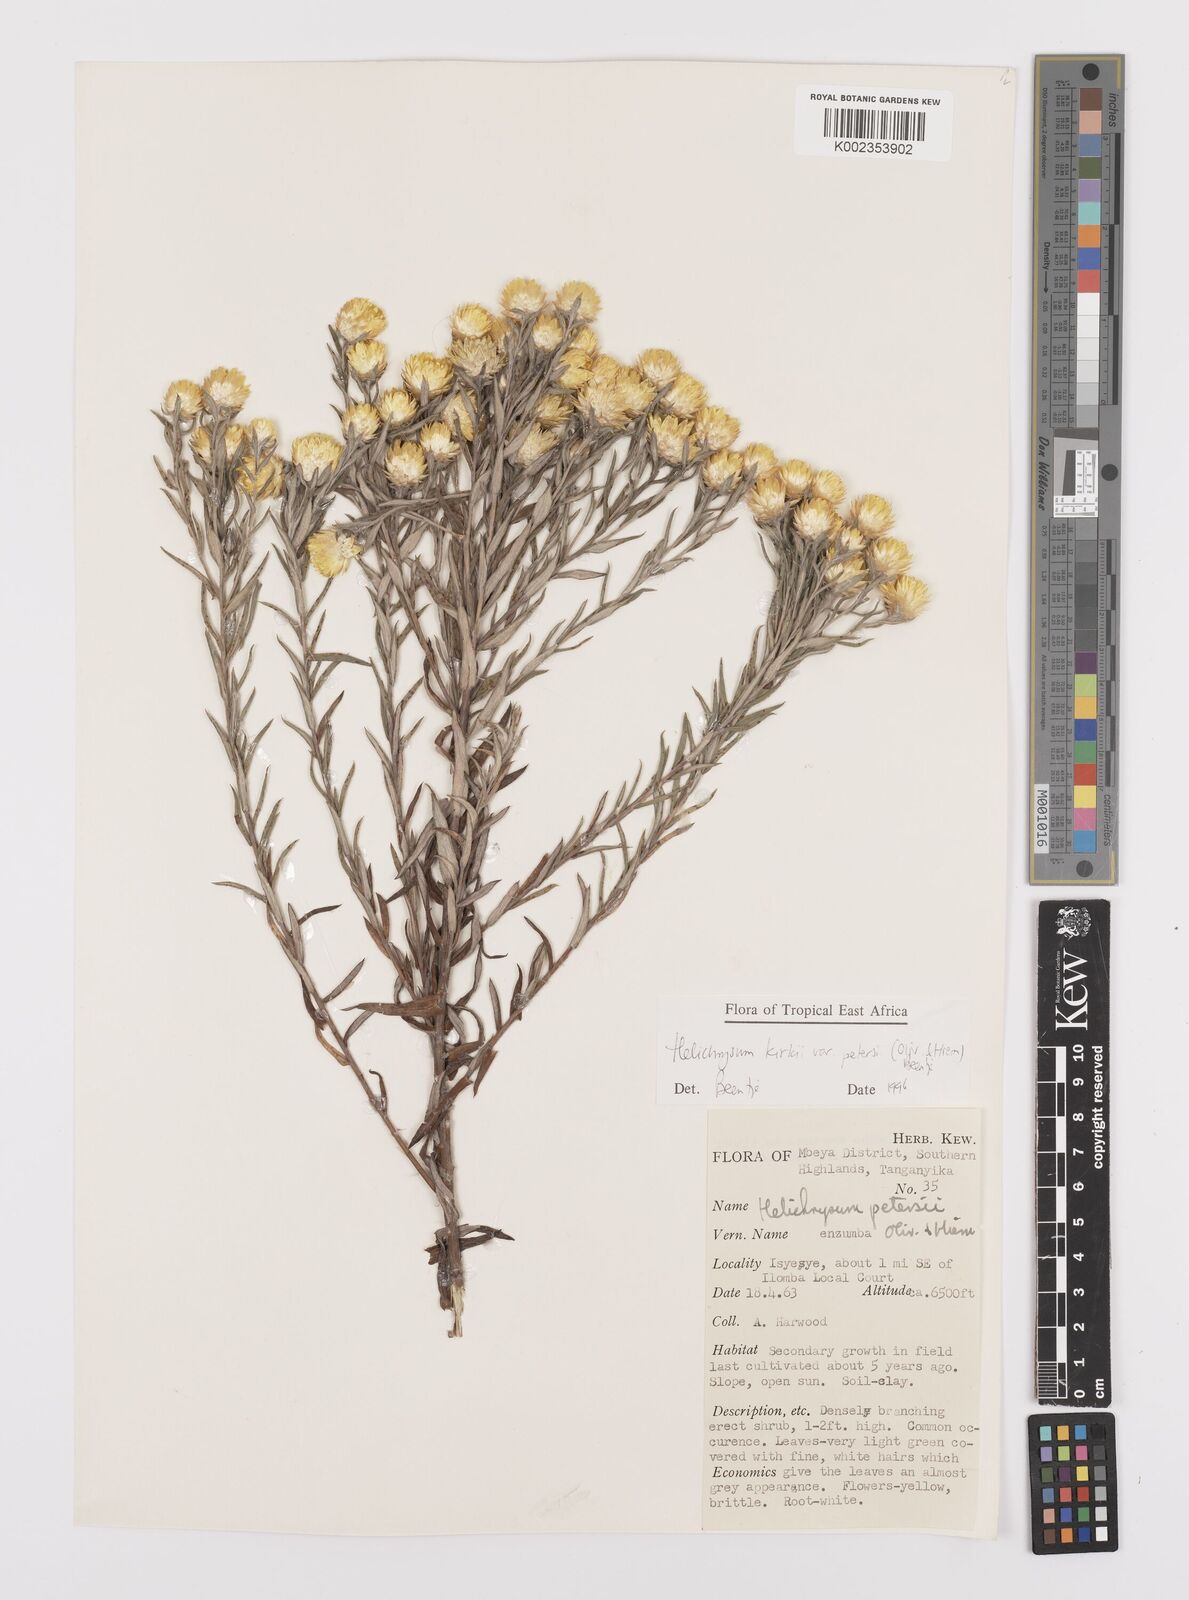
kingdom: Plantae
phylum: Tracheophyta
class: Magnoliopsida
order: Asterales
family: Asteraceae
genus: Helichrysum
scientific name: Helichrysum kirkii
